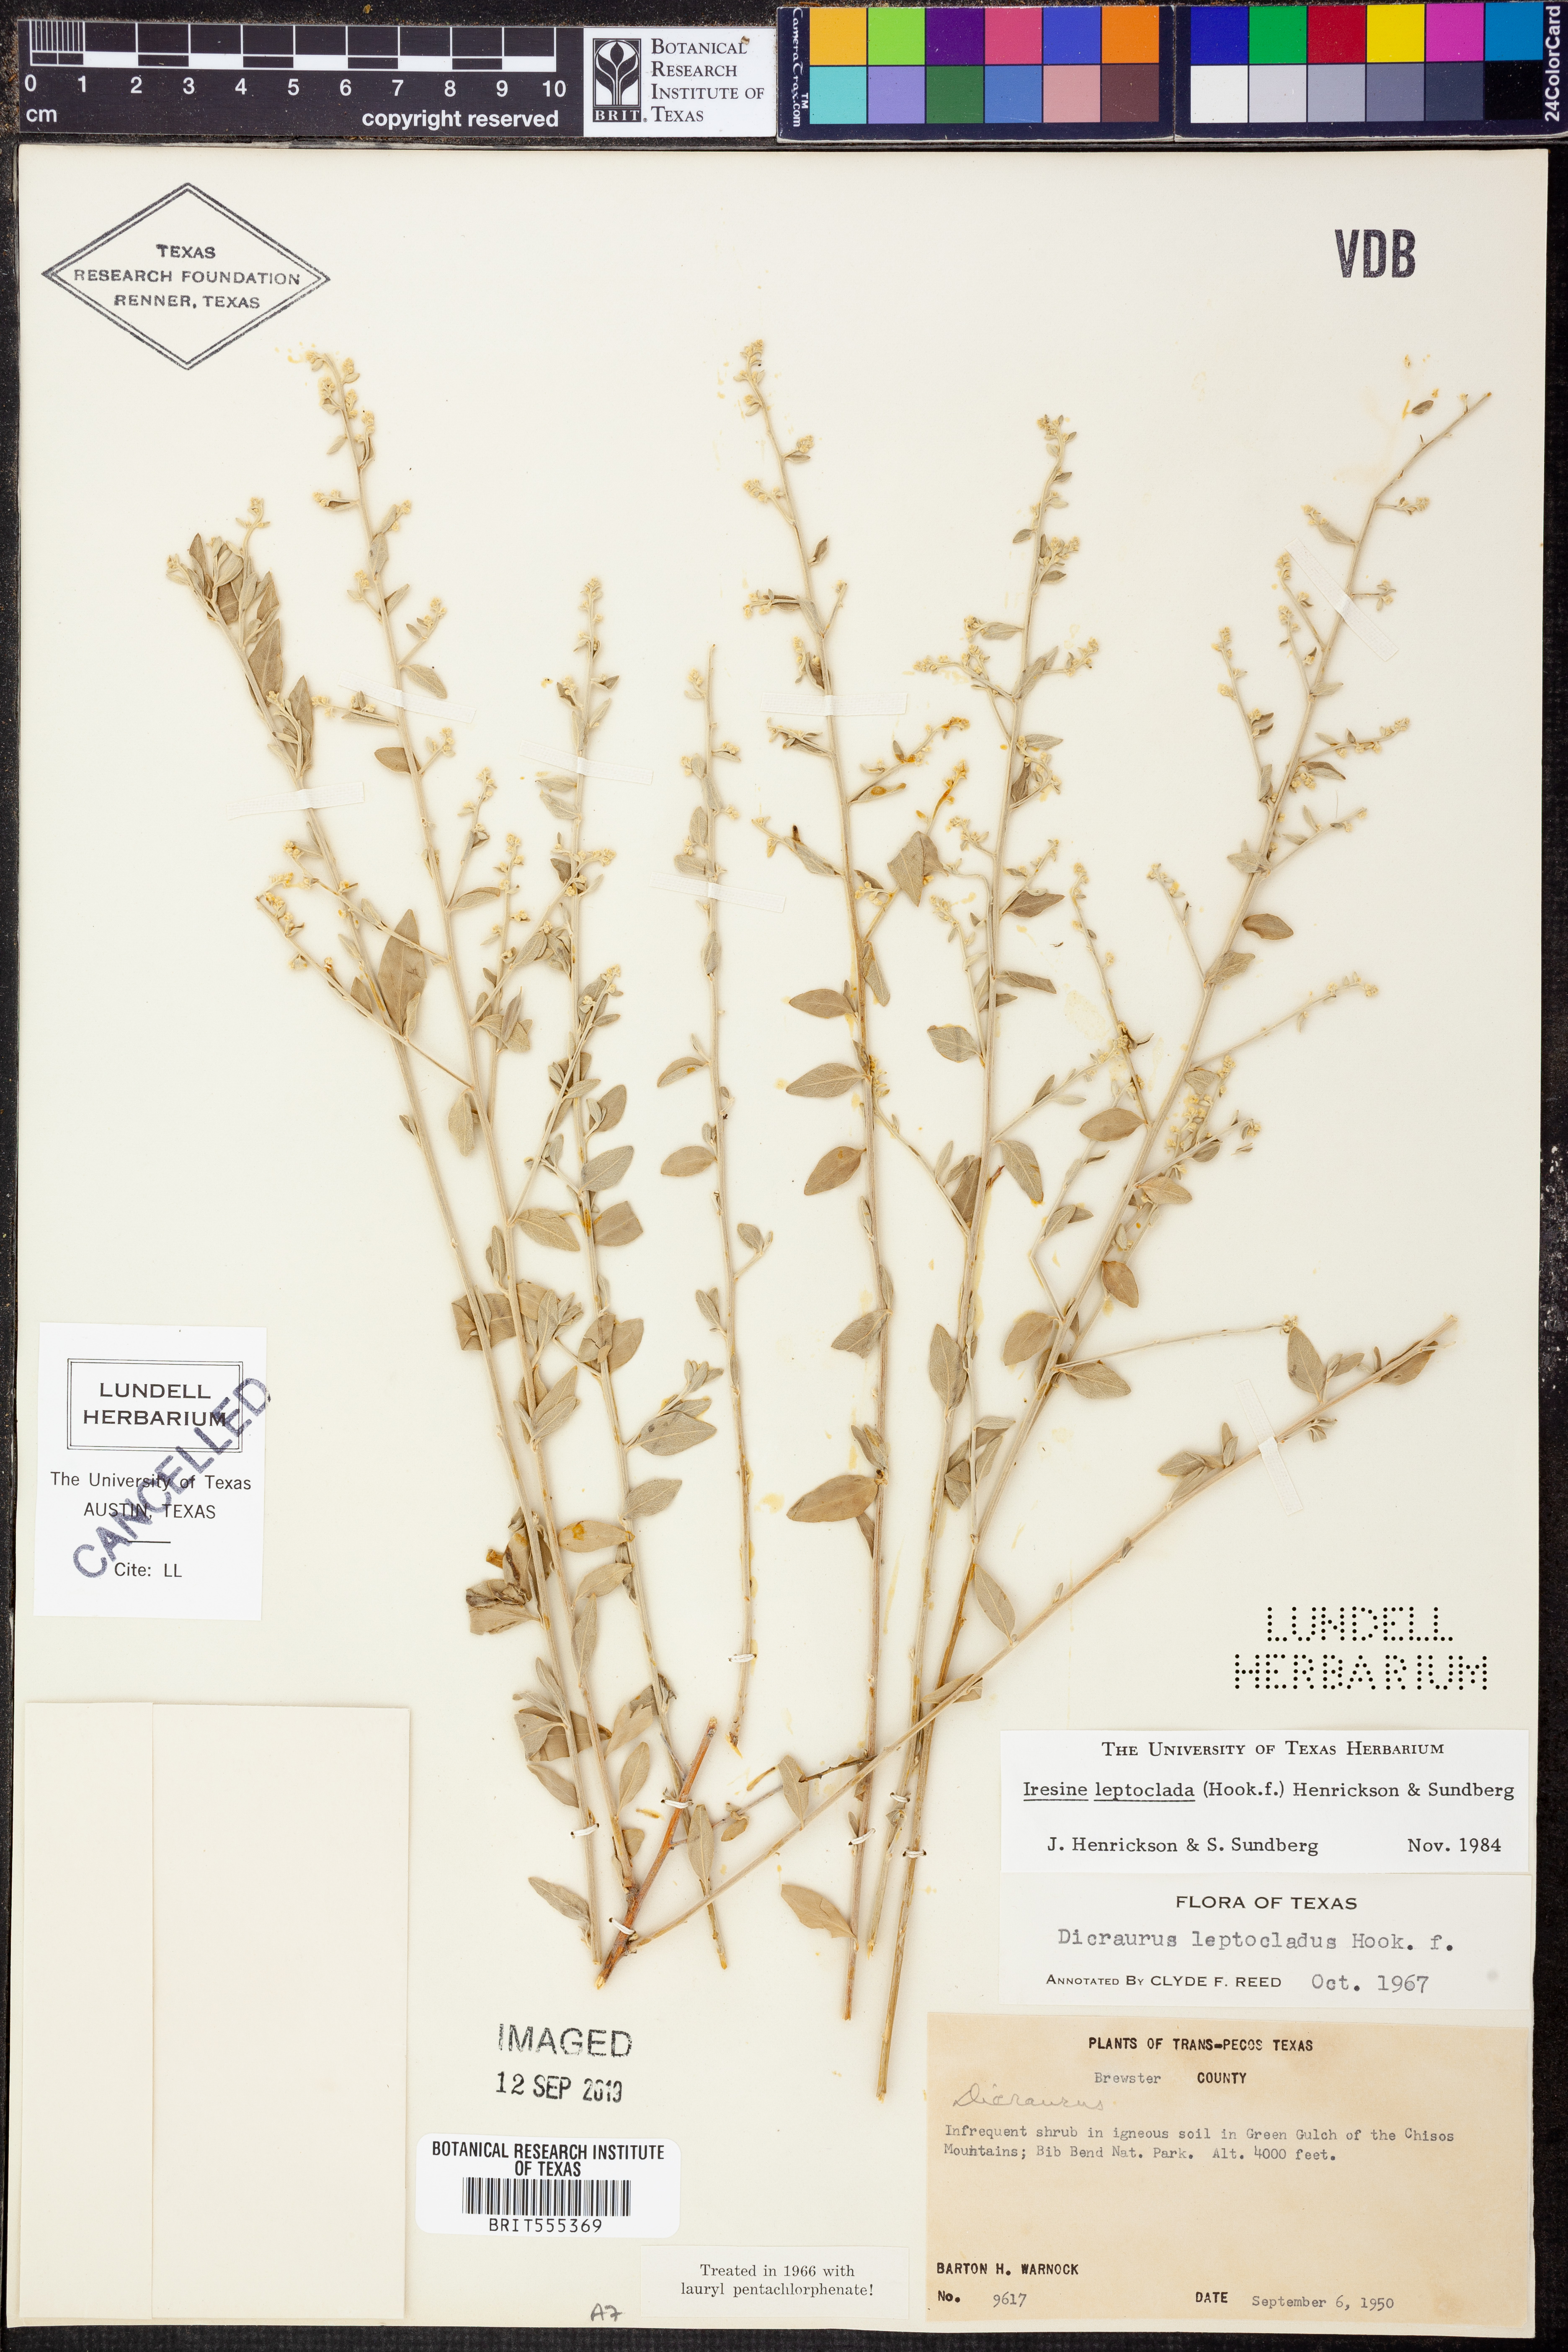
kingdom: Plantae
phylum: Tracheophyta
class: Magnoliopsida
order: Caryophyllales
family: Amaranthaceae
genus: Iresine
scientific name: Iresine leptoclada
